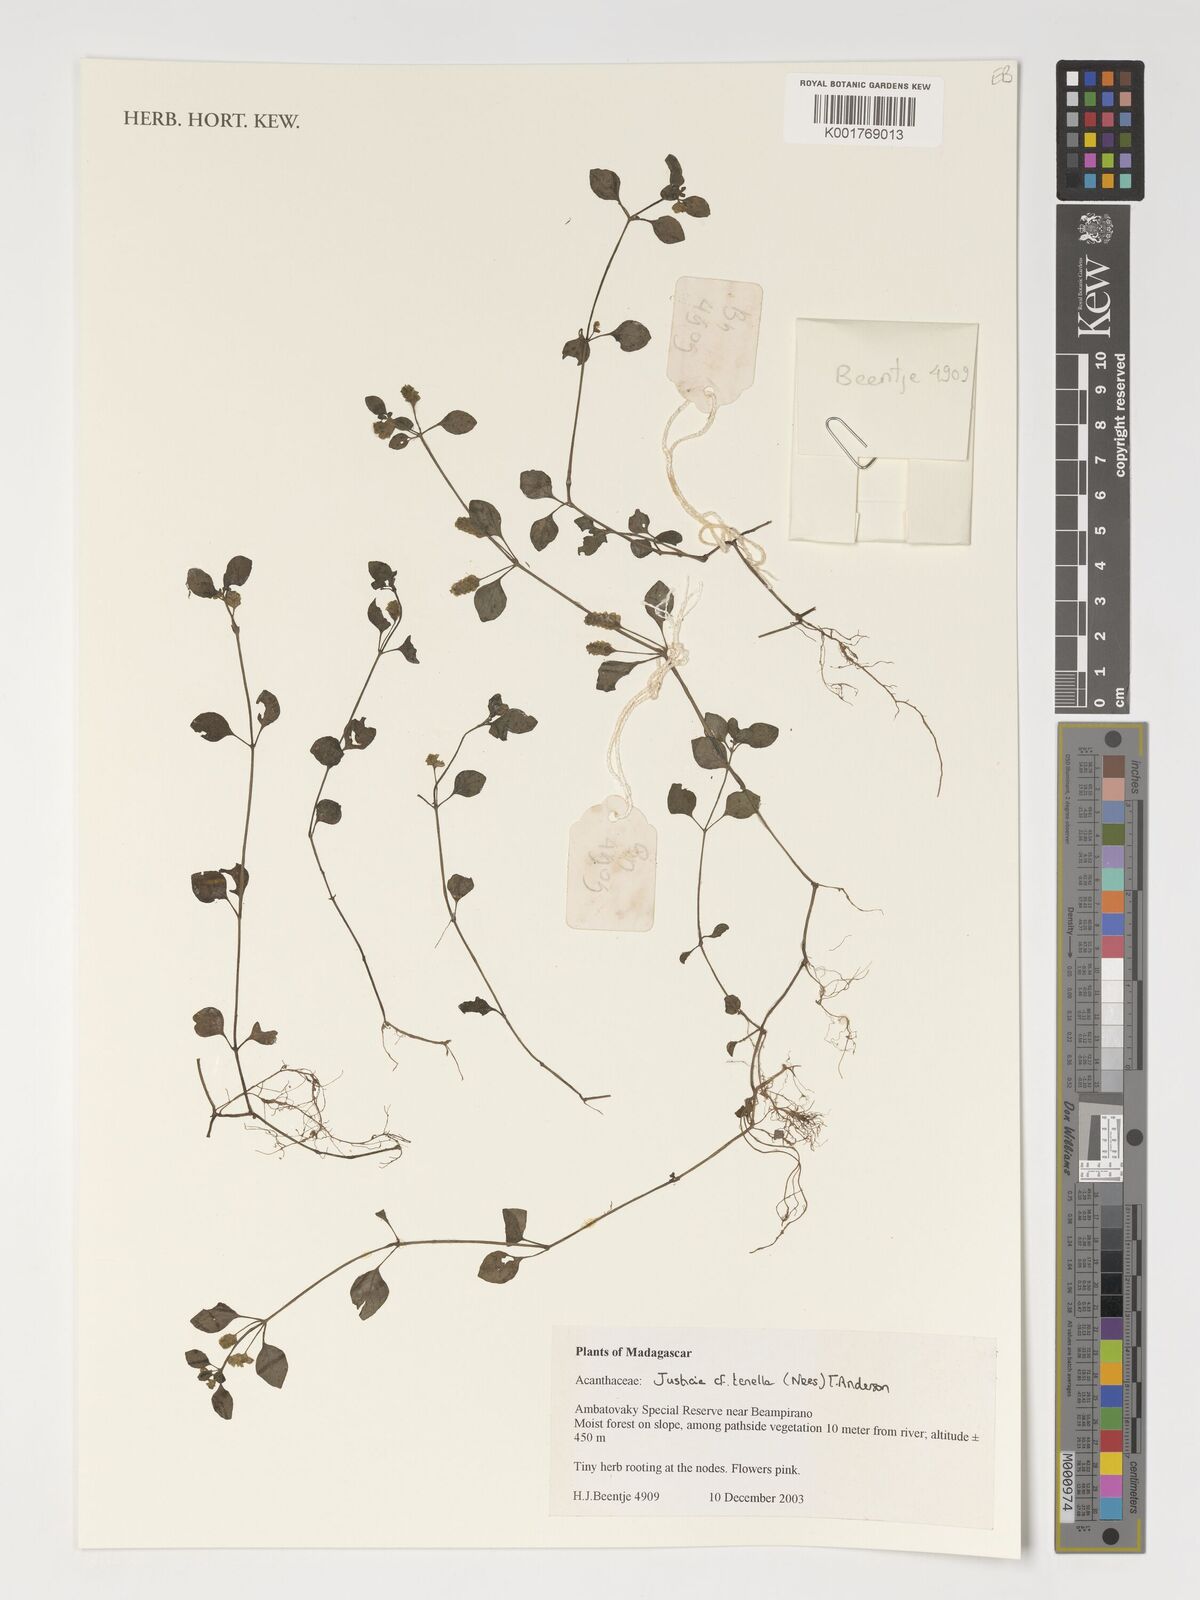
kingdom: Plantae
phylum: Tracheophyta
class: Magnoliopsida
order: Lamiales
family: Acanthaceae
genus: Anisostachya
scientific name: Anisostachya tenella
